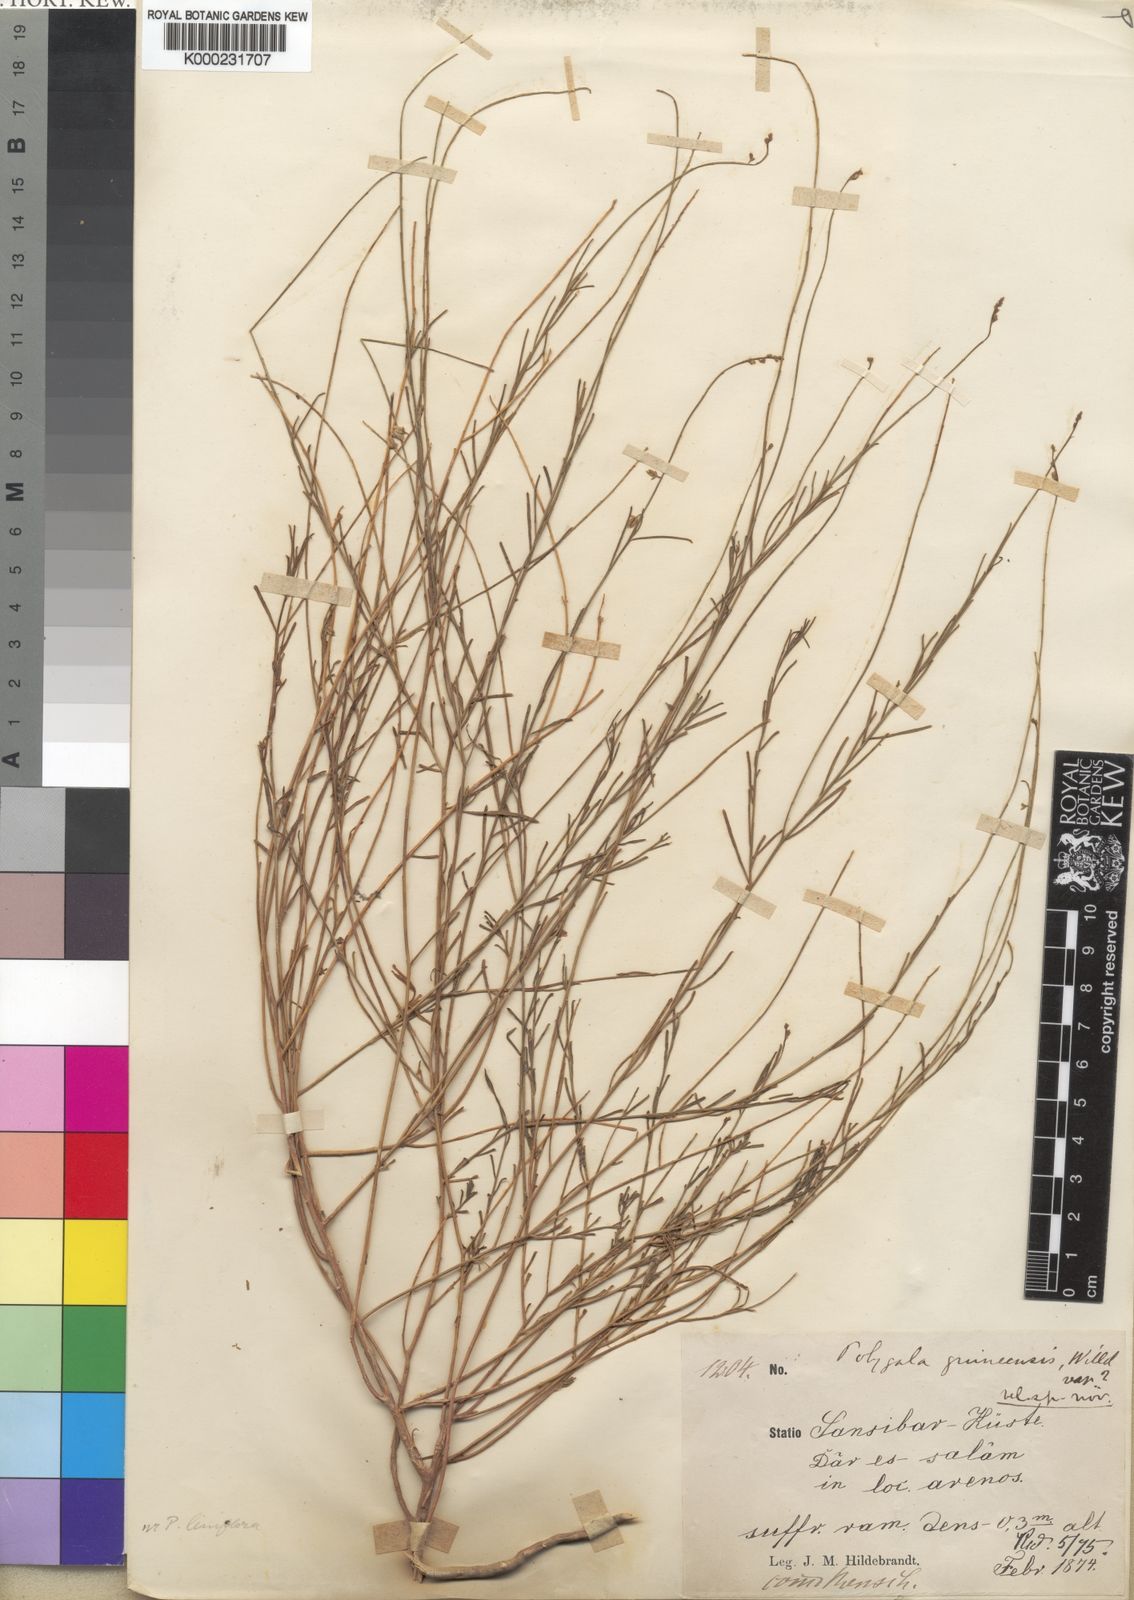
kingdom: Plantae
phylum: Tracheophyta
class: Magnoliopsida
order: Fabales
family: Polygalaceae
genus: Polygala
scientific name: Polygala
